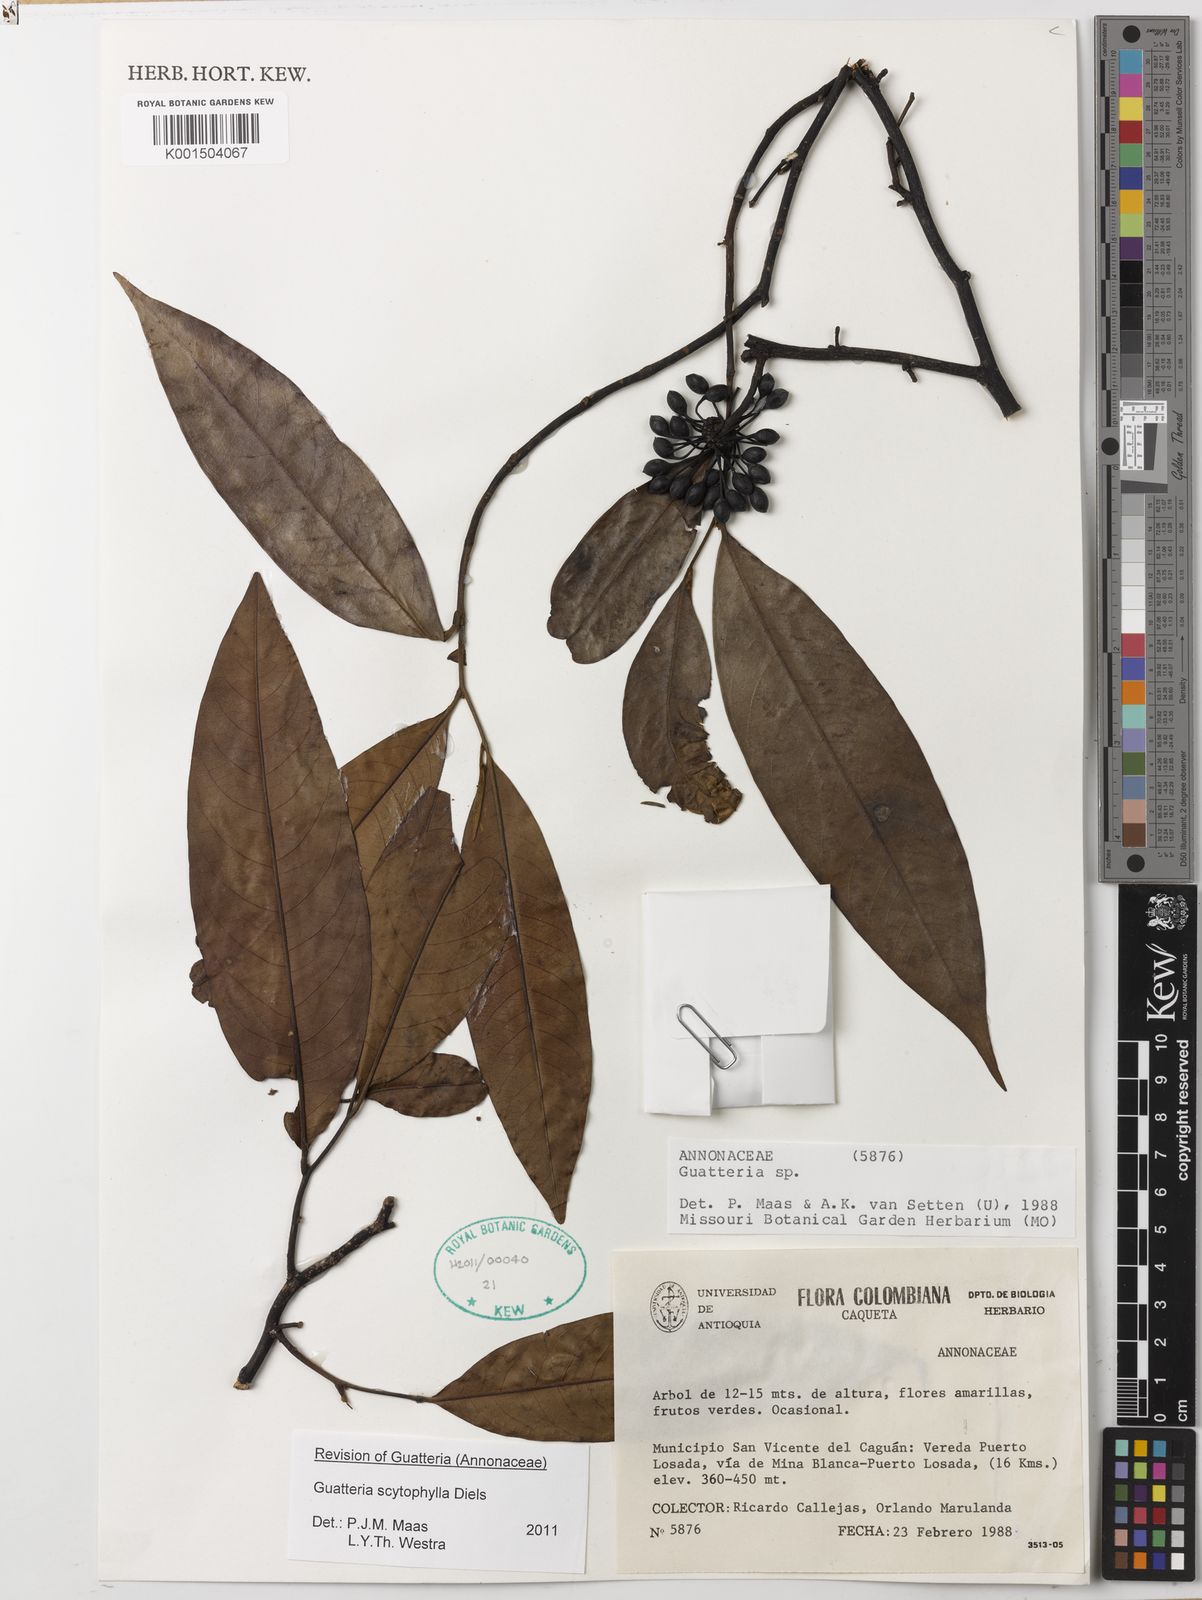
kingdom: Plantae
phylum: Tracheophyta
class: Magnoliopsida
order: Magnoliales
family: Annonaceae
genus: Guatteria
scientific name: Guatteria scytophylla
